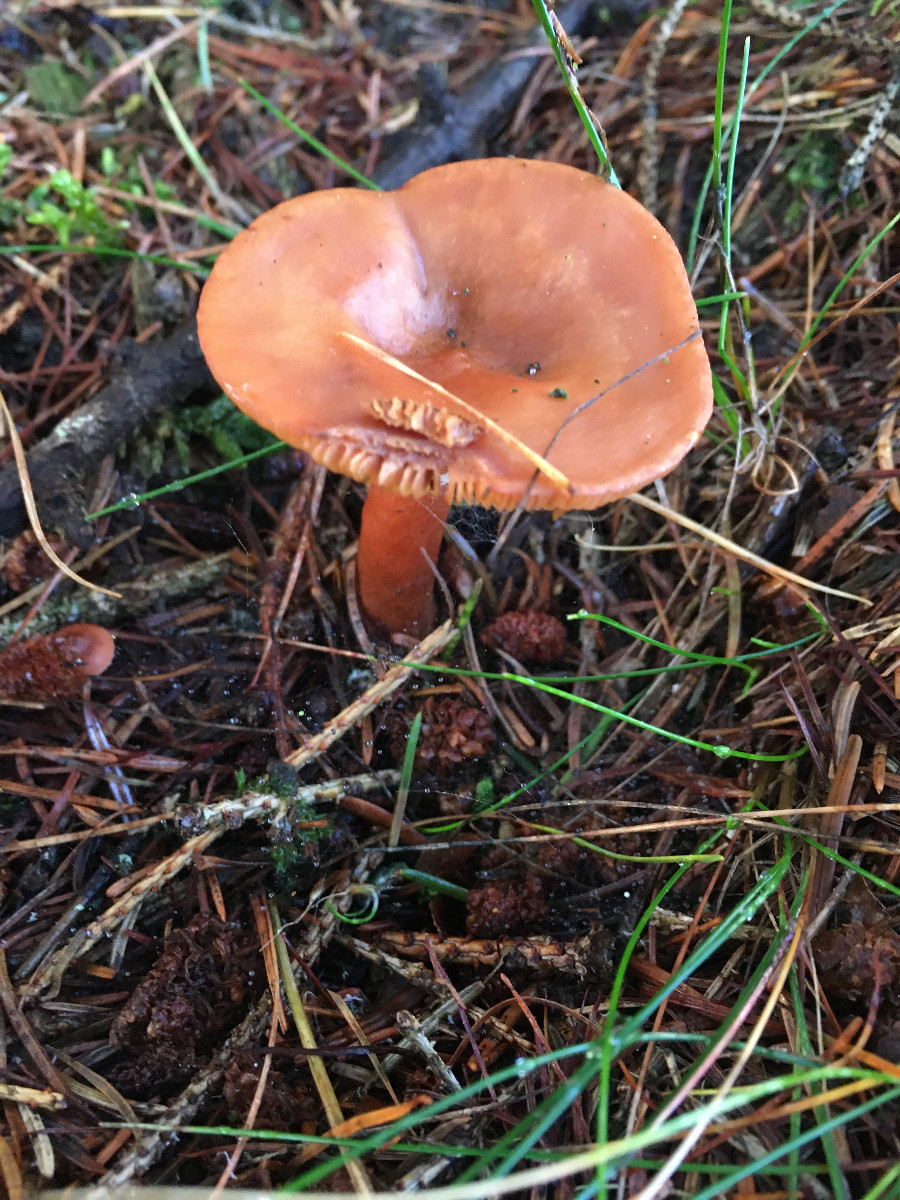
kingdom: Fungi
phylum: Basidiomycota
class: Agaricomycetes
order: Russulales
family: Russulaceae
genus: Lactarius
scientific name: Lactarius aurantiacus
